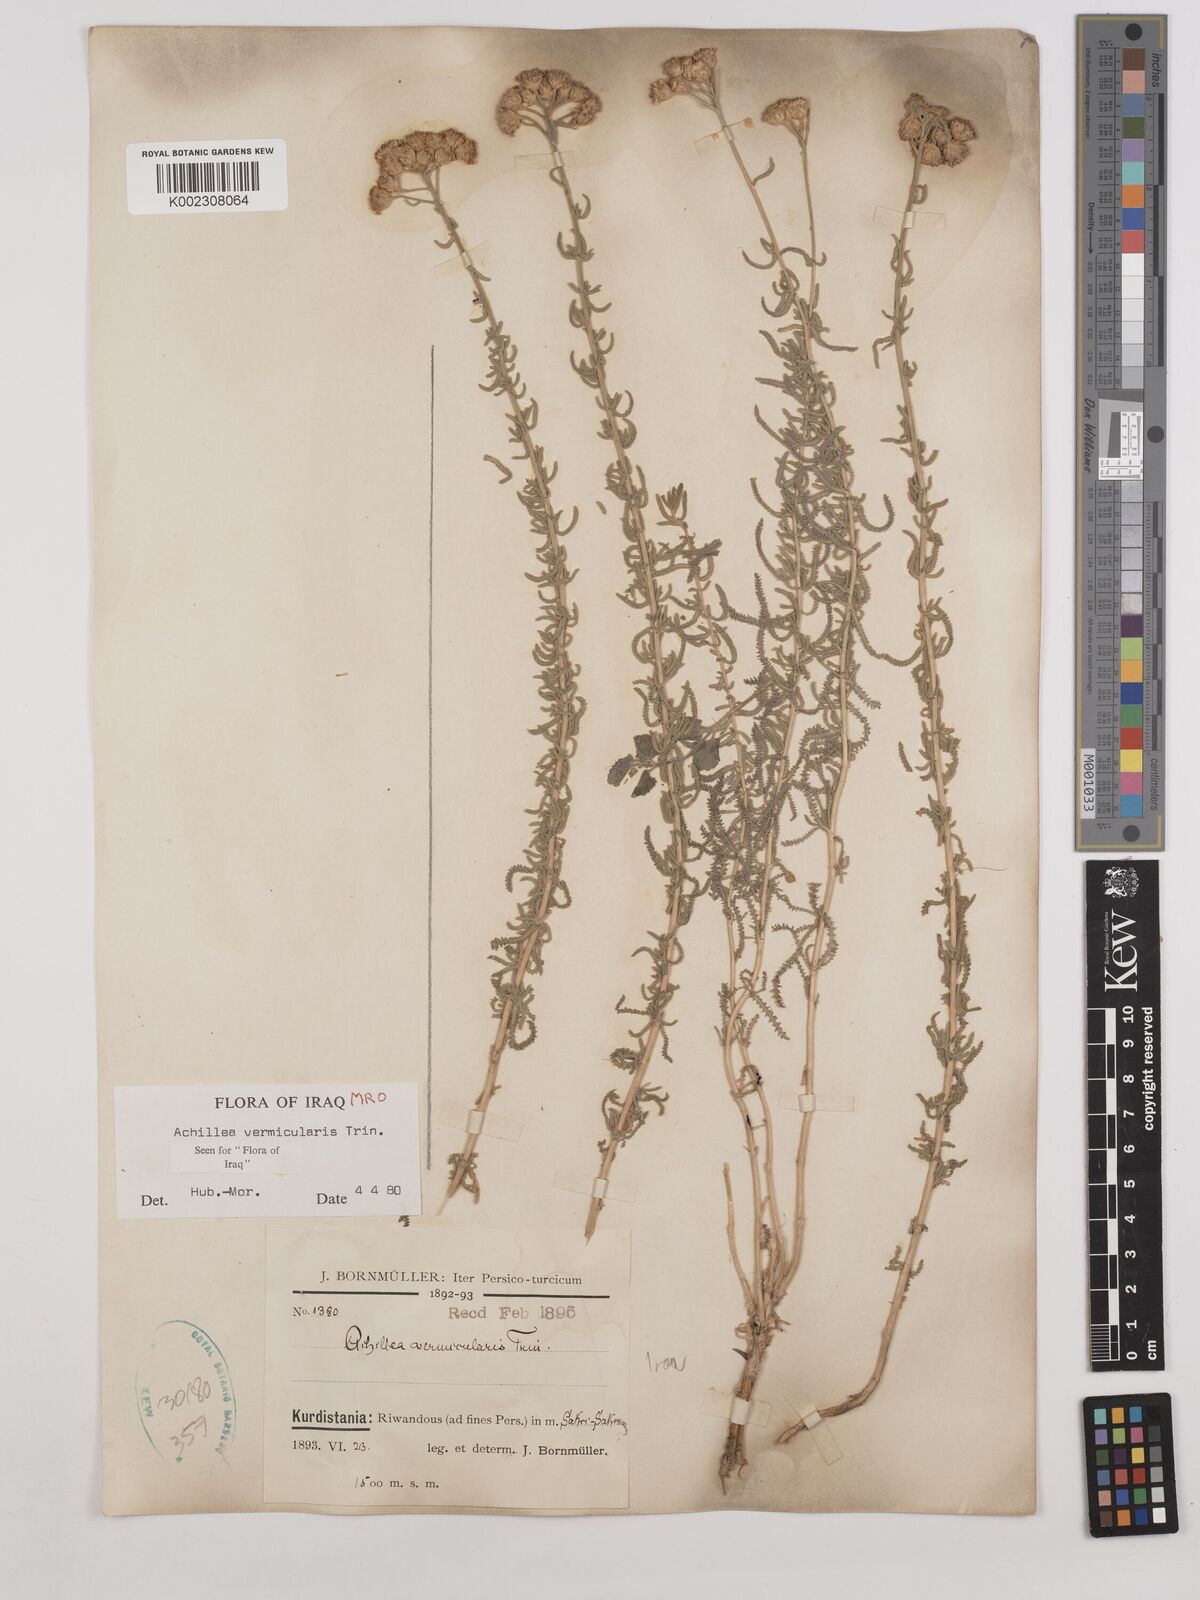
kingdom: Plantae
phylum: Tracheophyta
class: Magnoliopsida
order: Asterales
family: Asteraceae
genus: Achillea
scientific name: Achillea vermicularis
